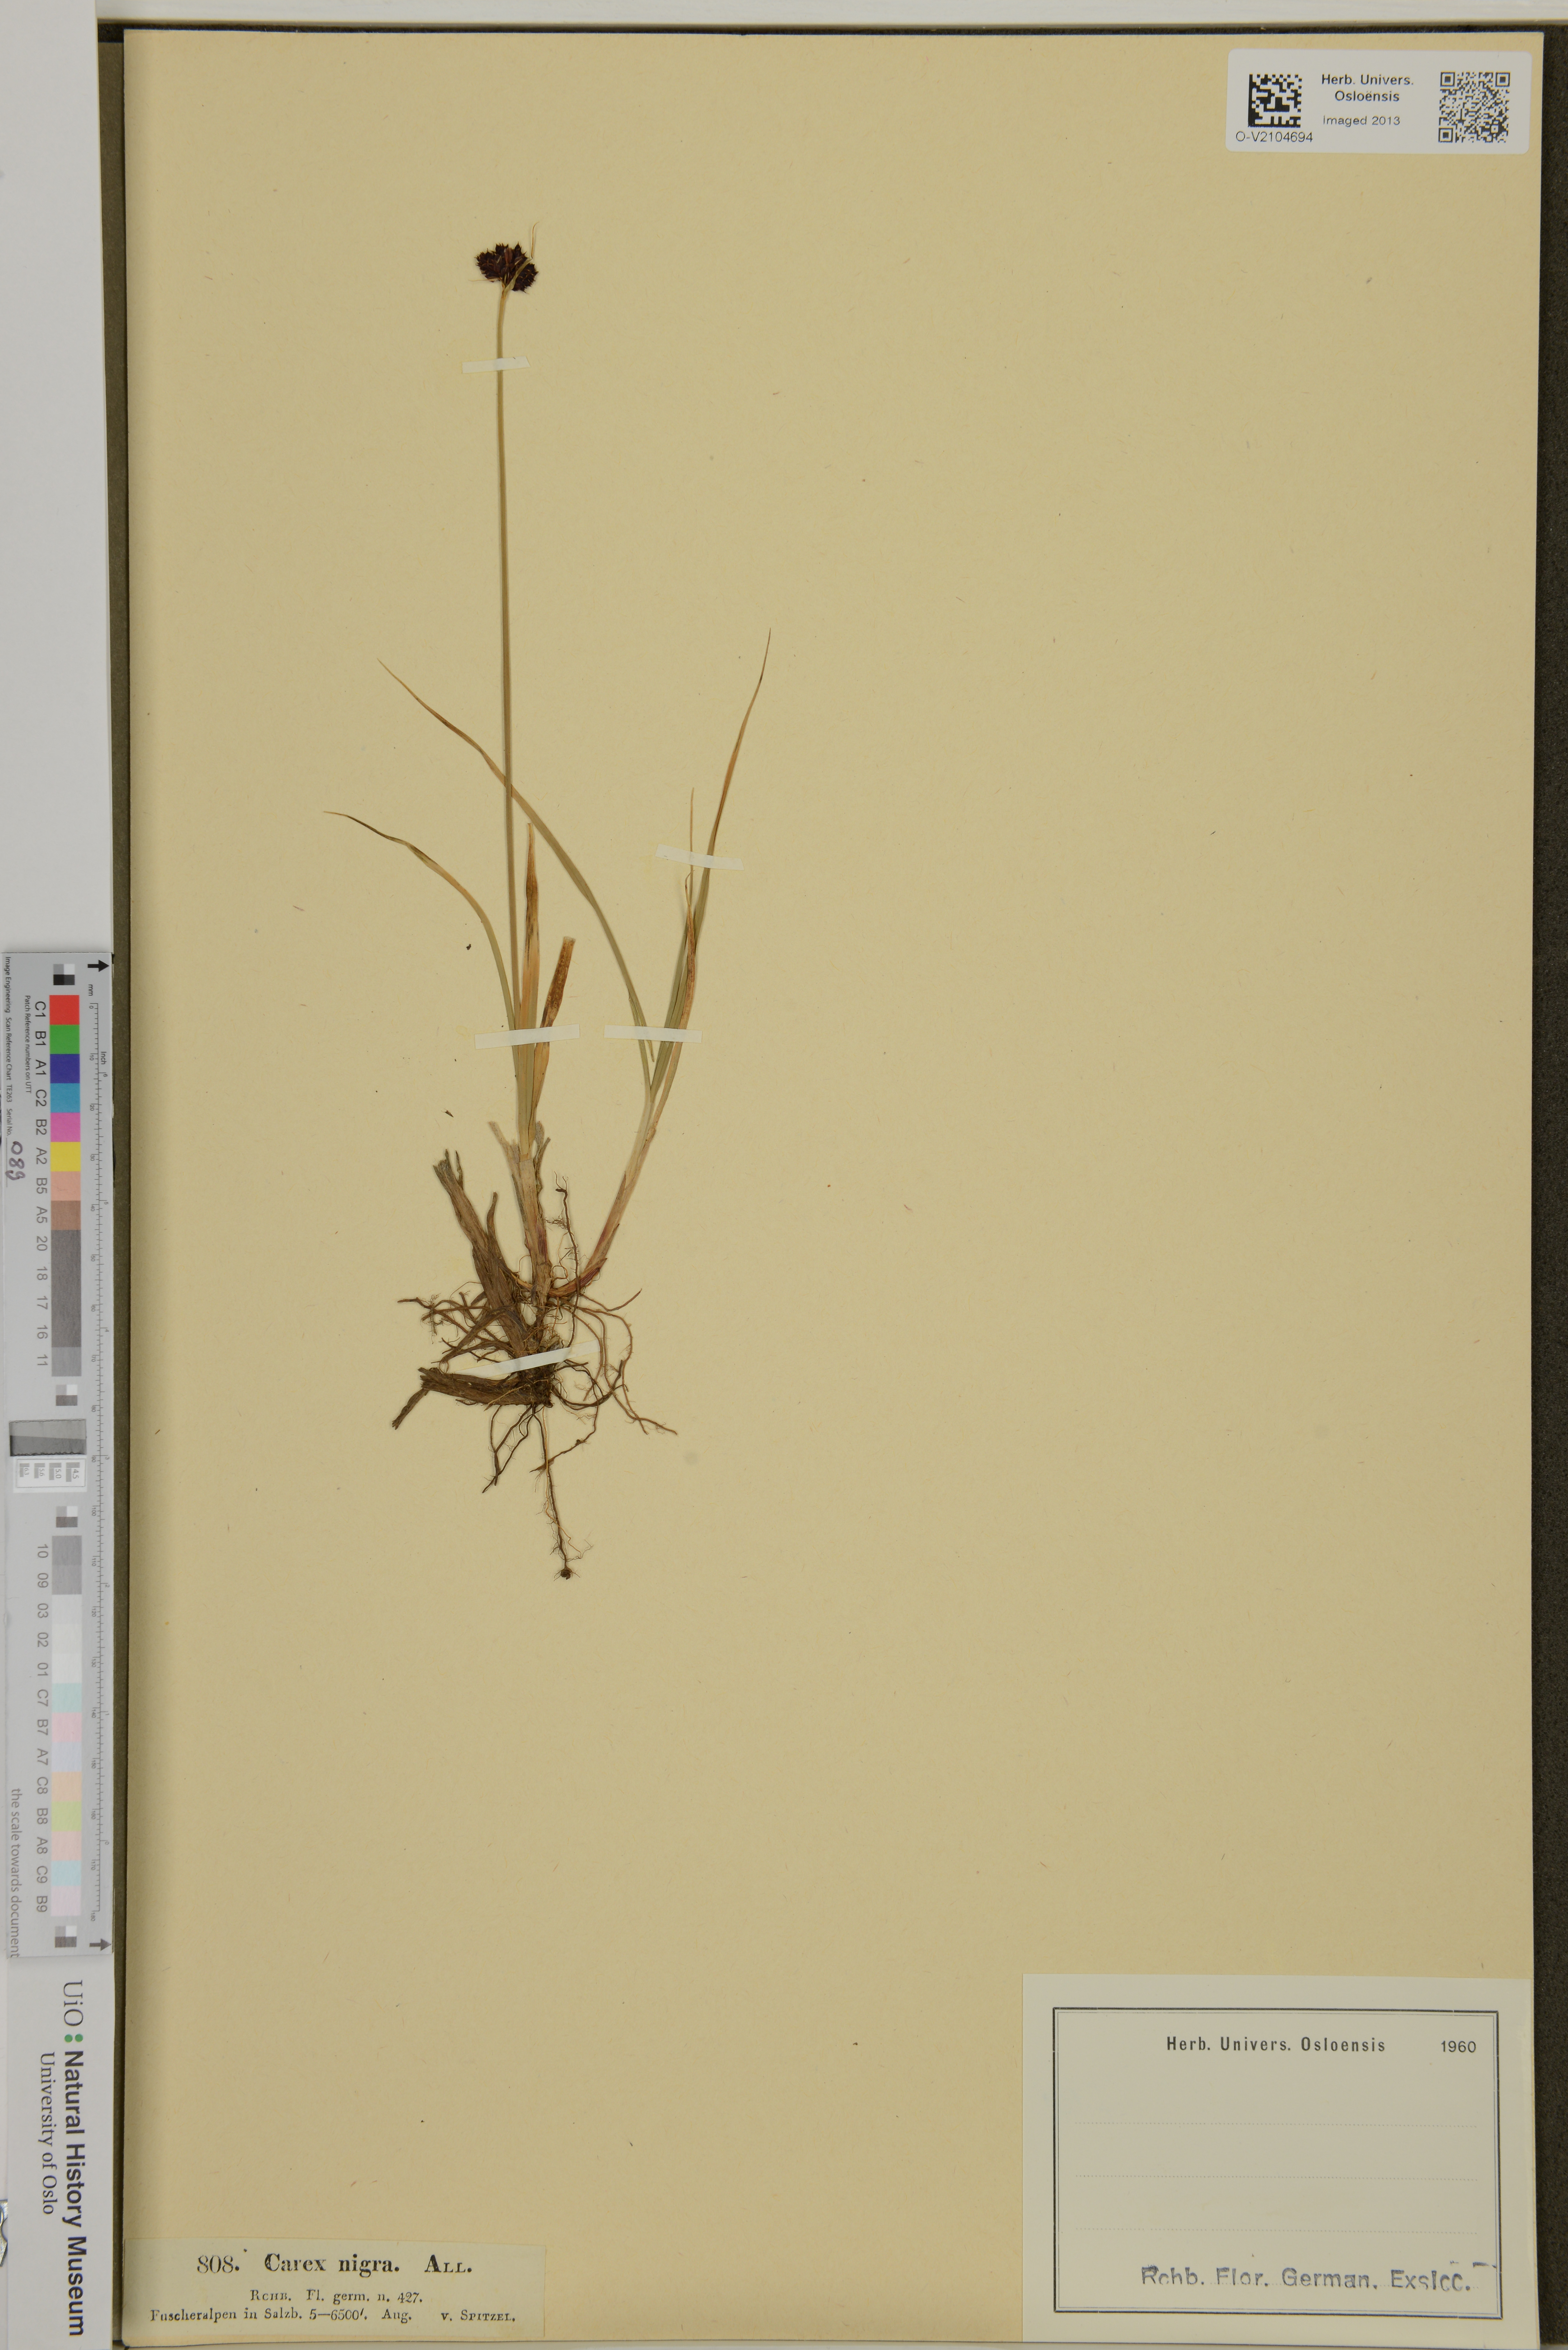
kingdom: Plantae
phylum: Tracheophyta
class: Liliopsida
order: Poales
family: Cyperaceae
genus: Carex
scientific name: Carex nigra
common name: Common sedge
